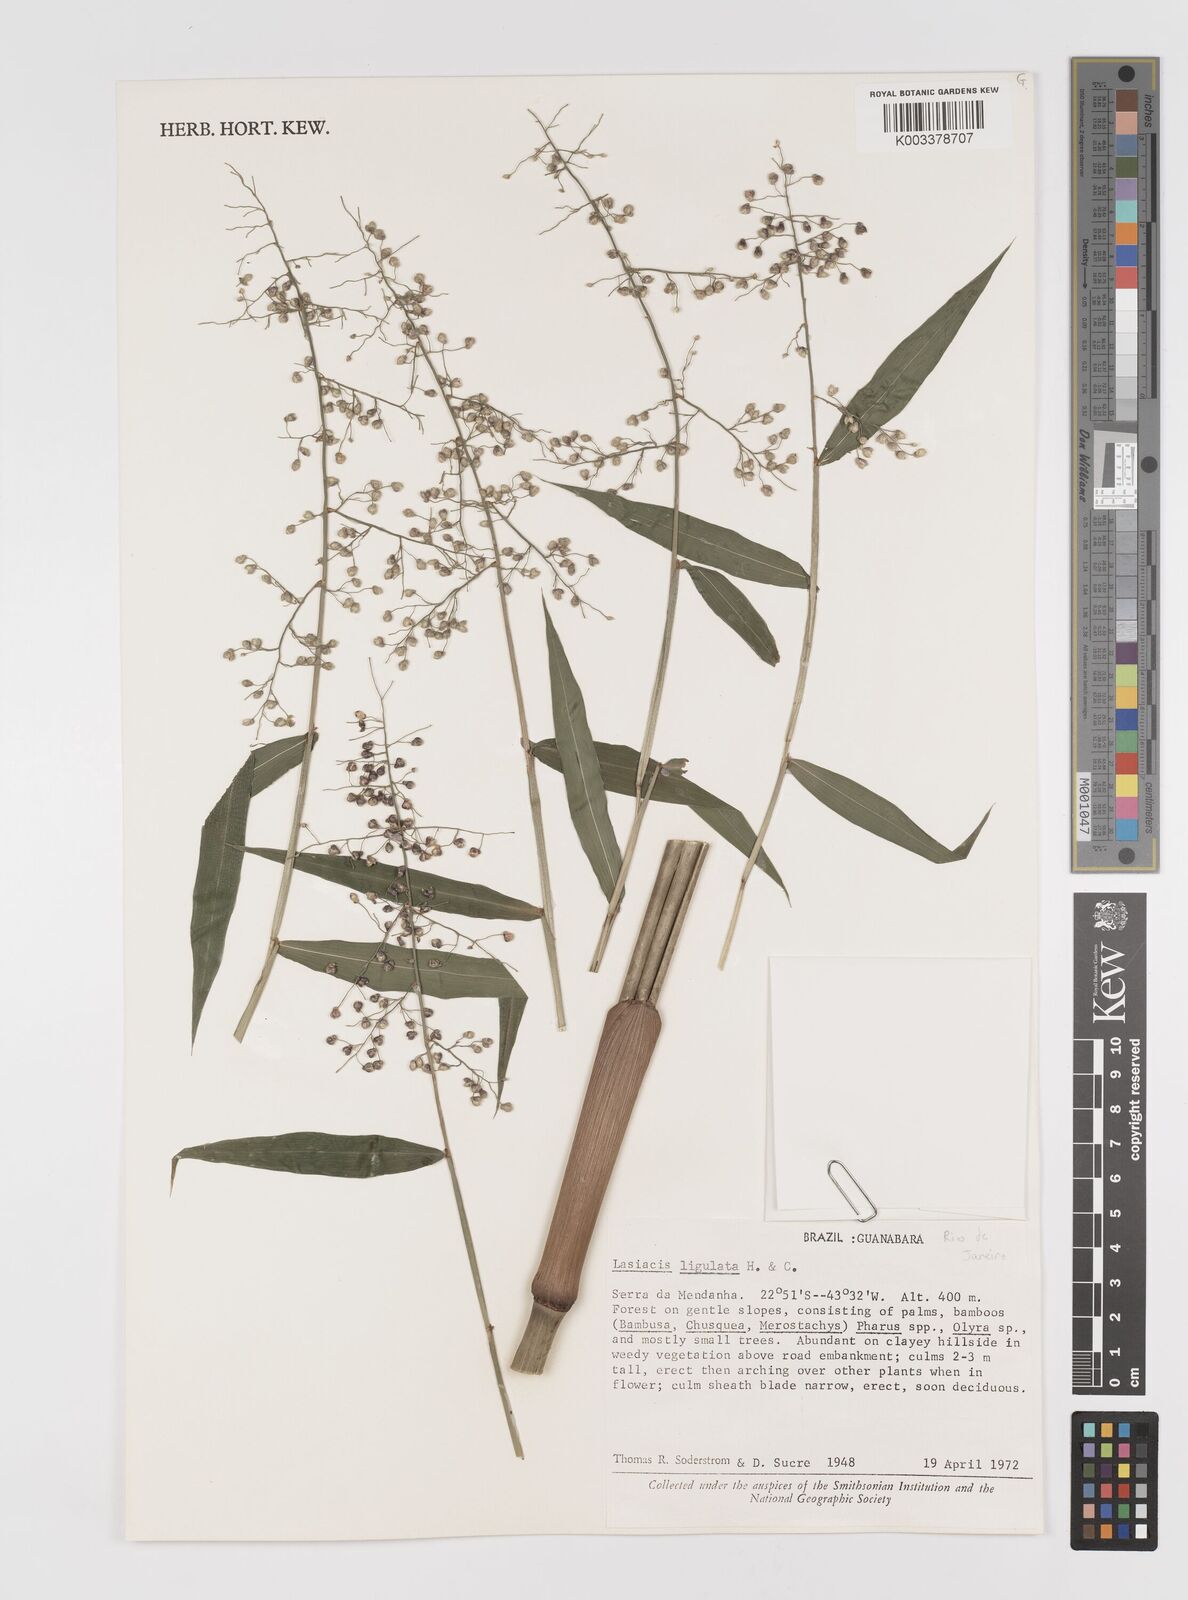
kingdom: Plantae
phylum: Tracheophyta
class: Liliopsida
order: Poales
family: Poaceae
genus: Lasiacis
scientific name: Lasiacis ligulata
